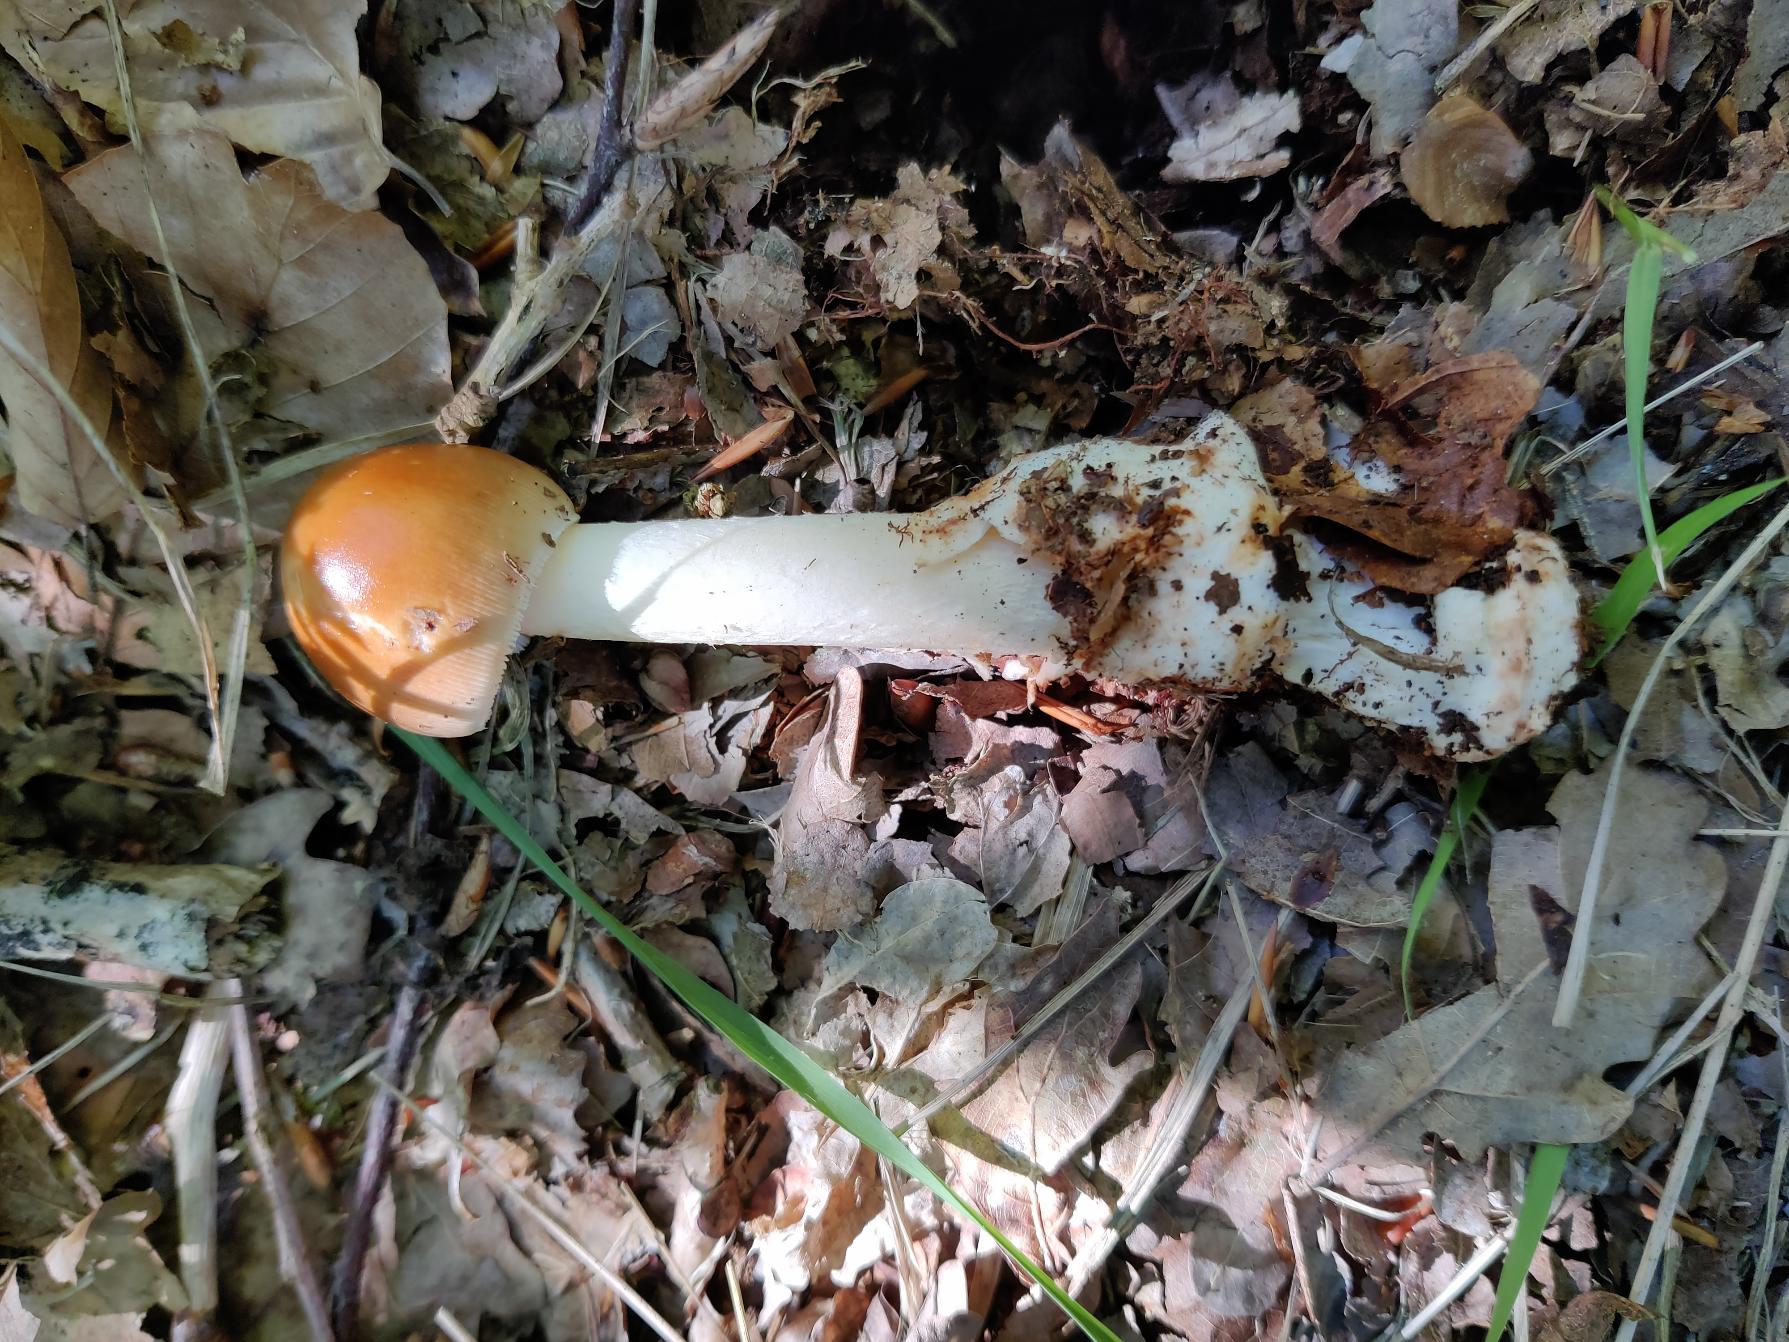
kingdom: Fungi
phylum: Basidiomycota
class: Agaricomycetes
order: Agaricales
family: Amanitaceae
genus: Amanita
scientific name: Amanita fulva
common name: Brun kam-fluesvamp
